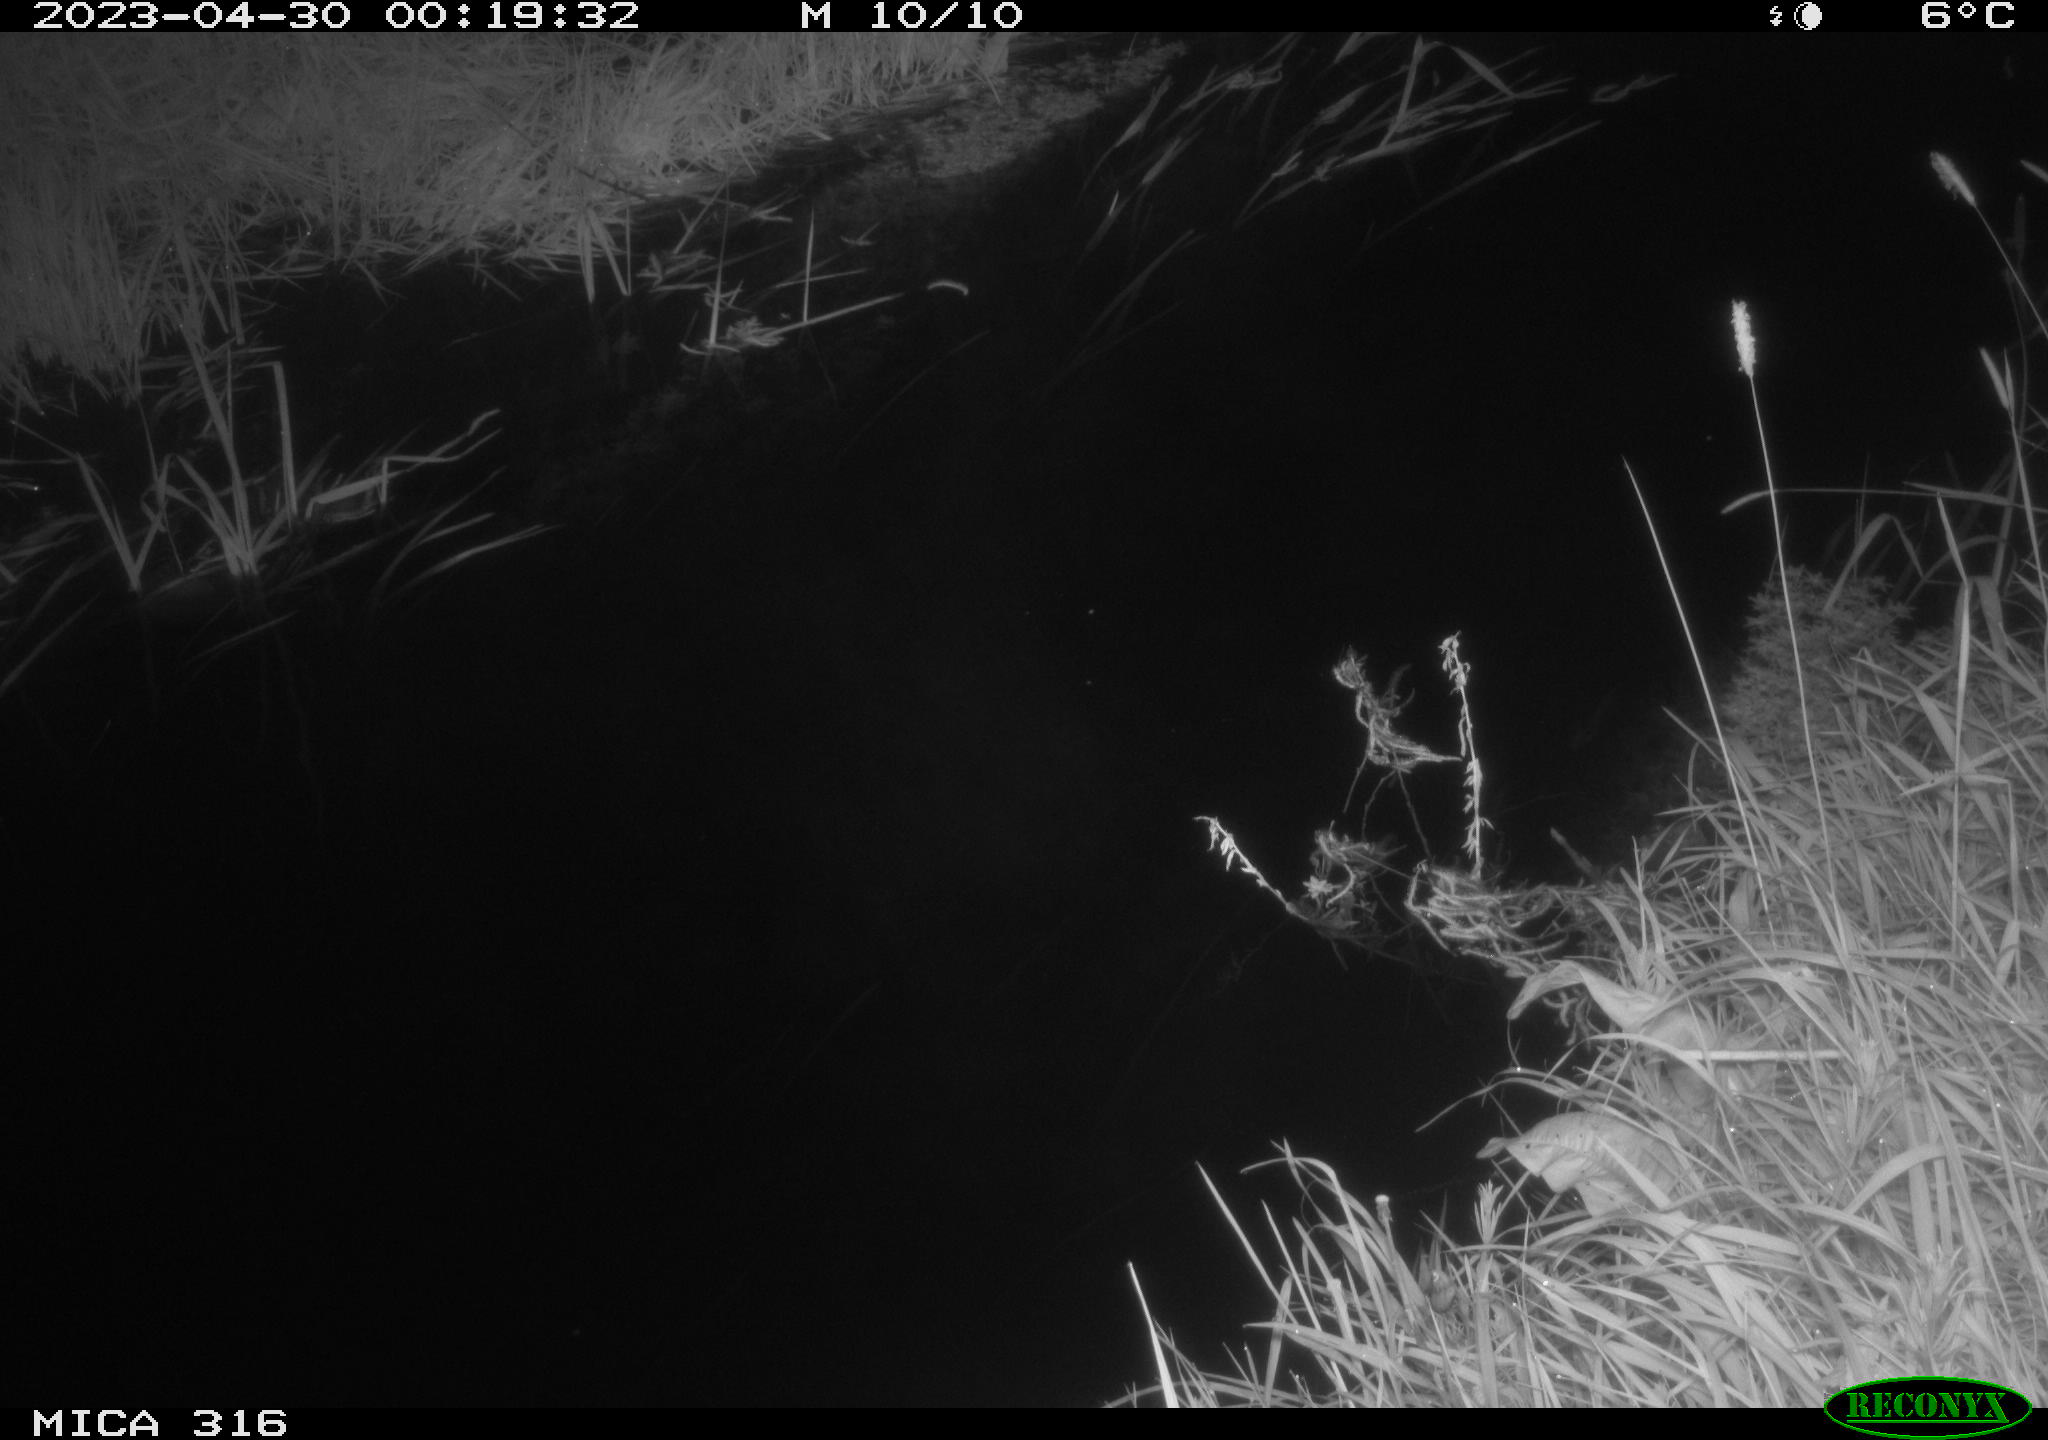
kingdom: Animalia
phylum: Chordata
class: Aves
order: Anseriformes
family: Anatidae
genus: Anas
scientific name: Anas
